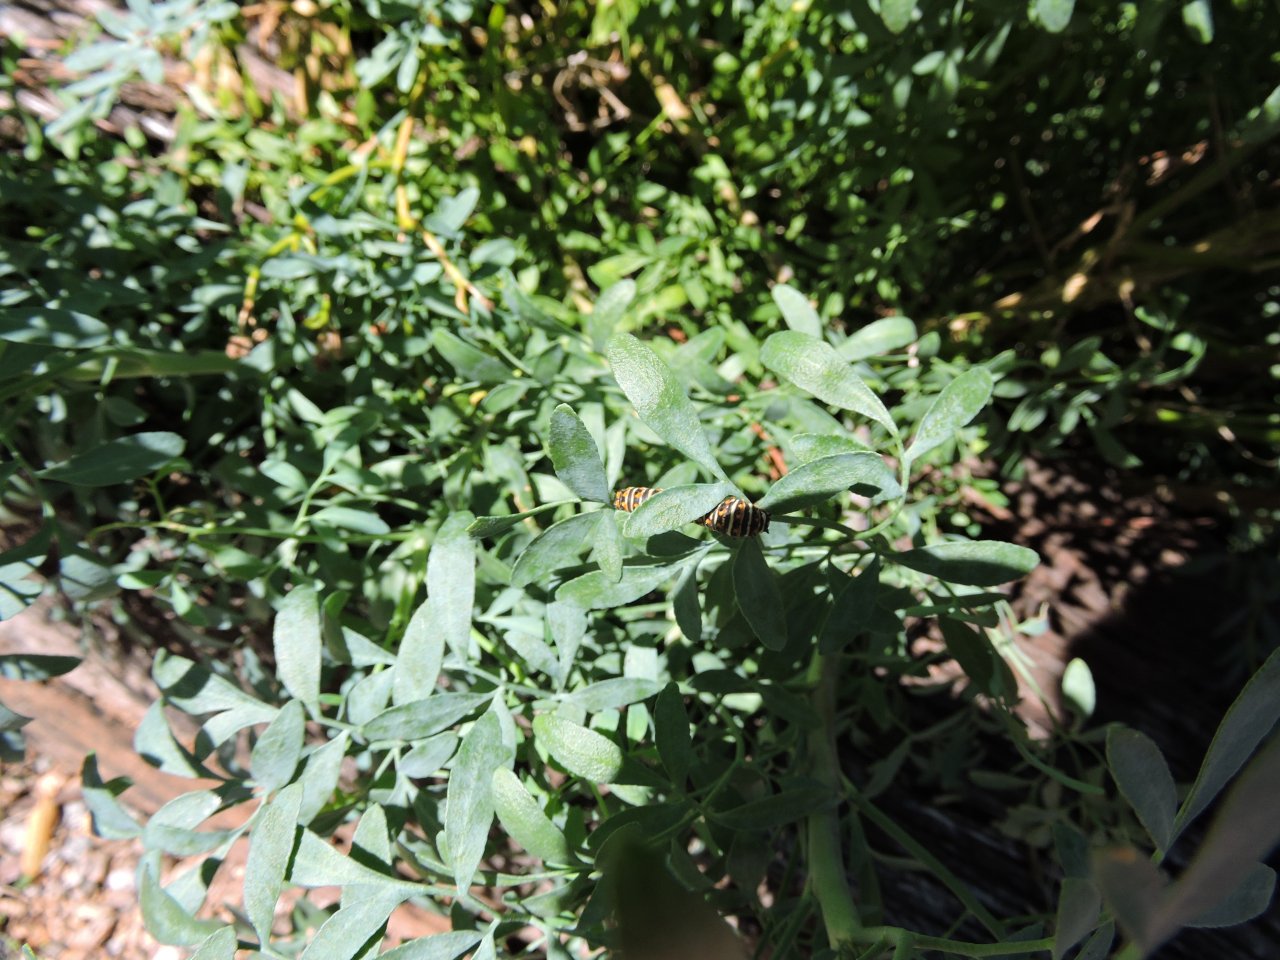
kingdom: Animalia
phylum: Arthropoda
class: Insecta
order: Lepidoptera
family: Papilionidae
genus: Papilio
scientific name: Papilio polyxenes
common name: Black Swallowtail
